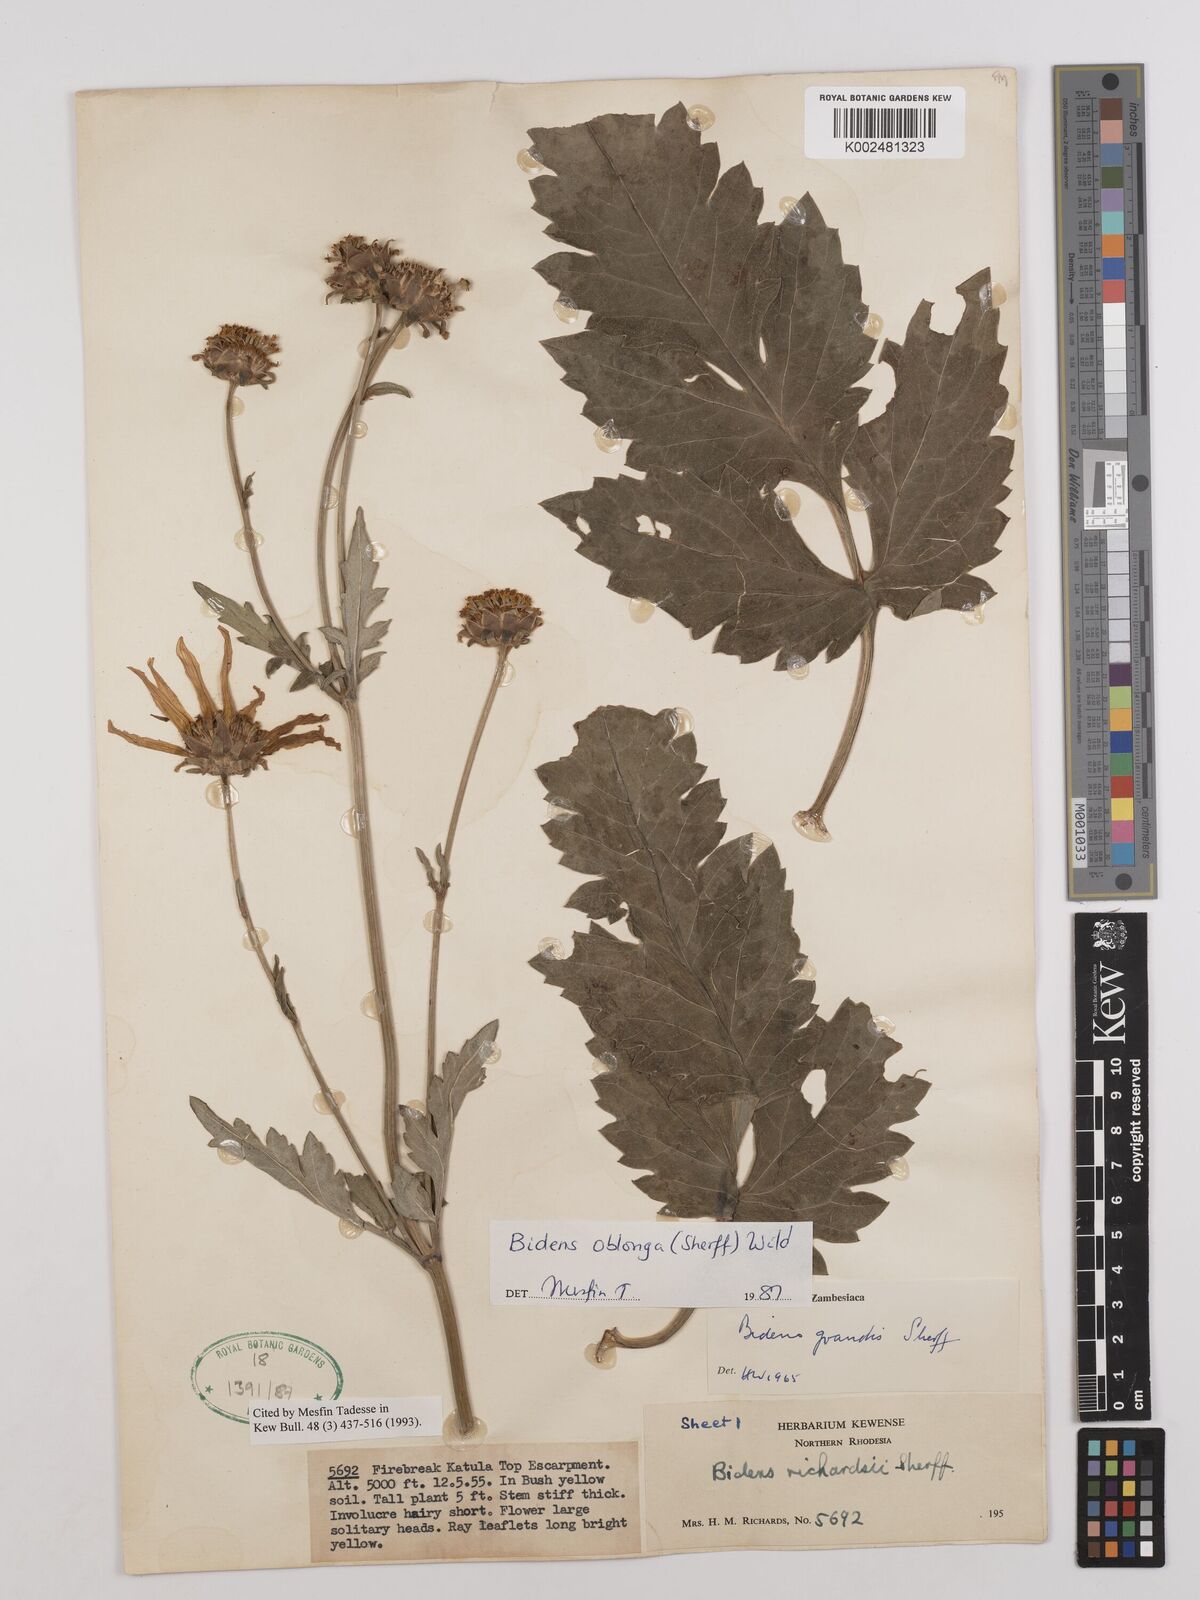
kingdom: Plantae
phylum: Tracheophyta
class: Magnoliopsida
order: Asterales
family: Asteraceae
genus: Bidens
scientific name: Bidens oblonga
